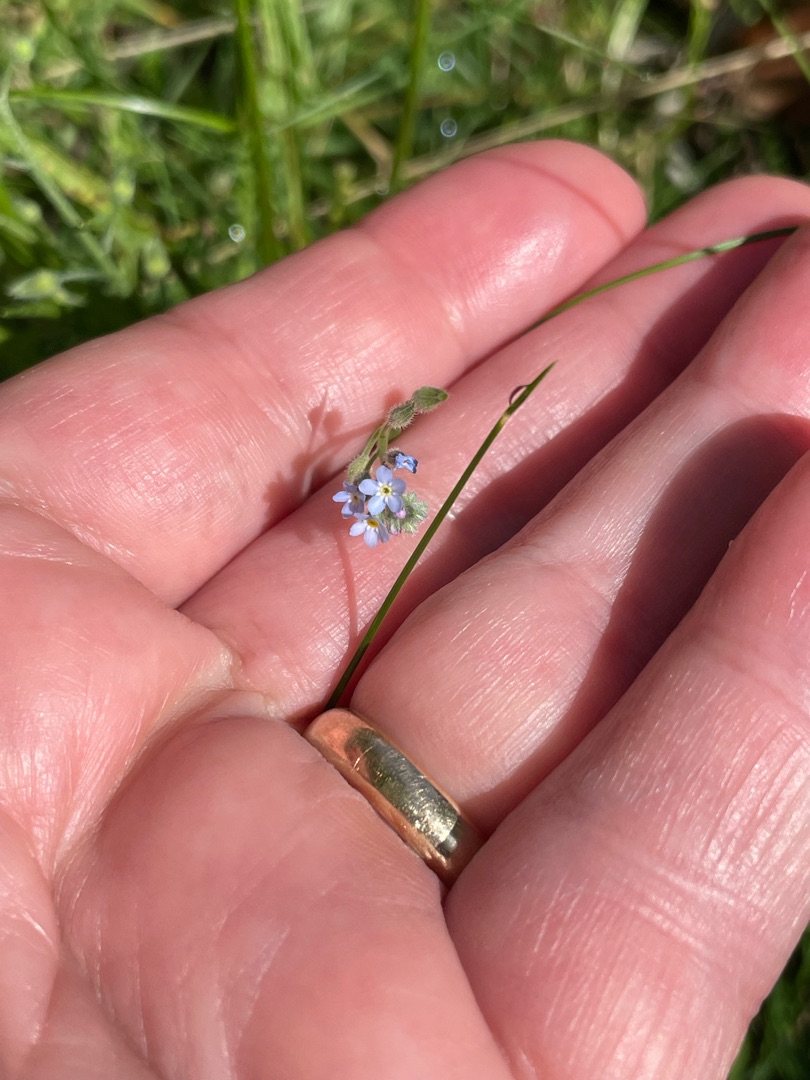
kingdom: Plantae
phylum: Tracheophyta
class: Magnoliopsida
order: Boraginales
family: Boraginaceae
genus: Myosotis
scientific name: Myosotis arvensis
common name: Mark-forglemmigej
